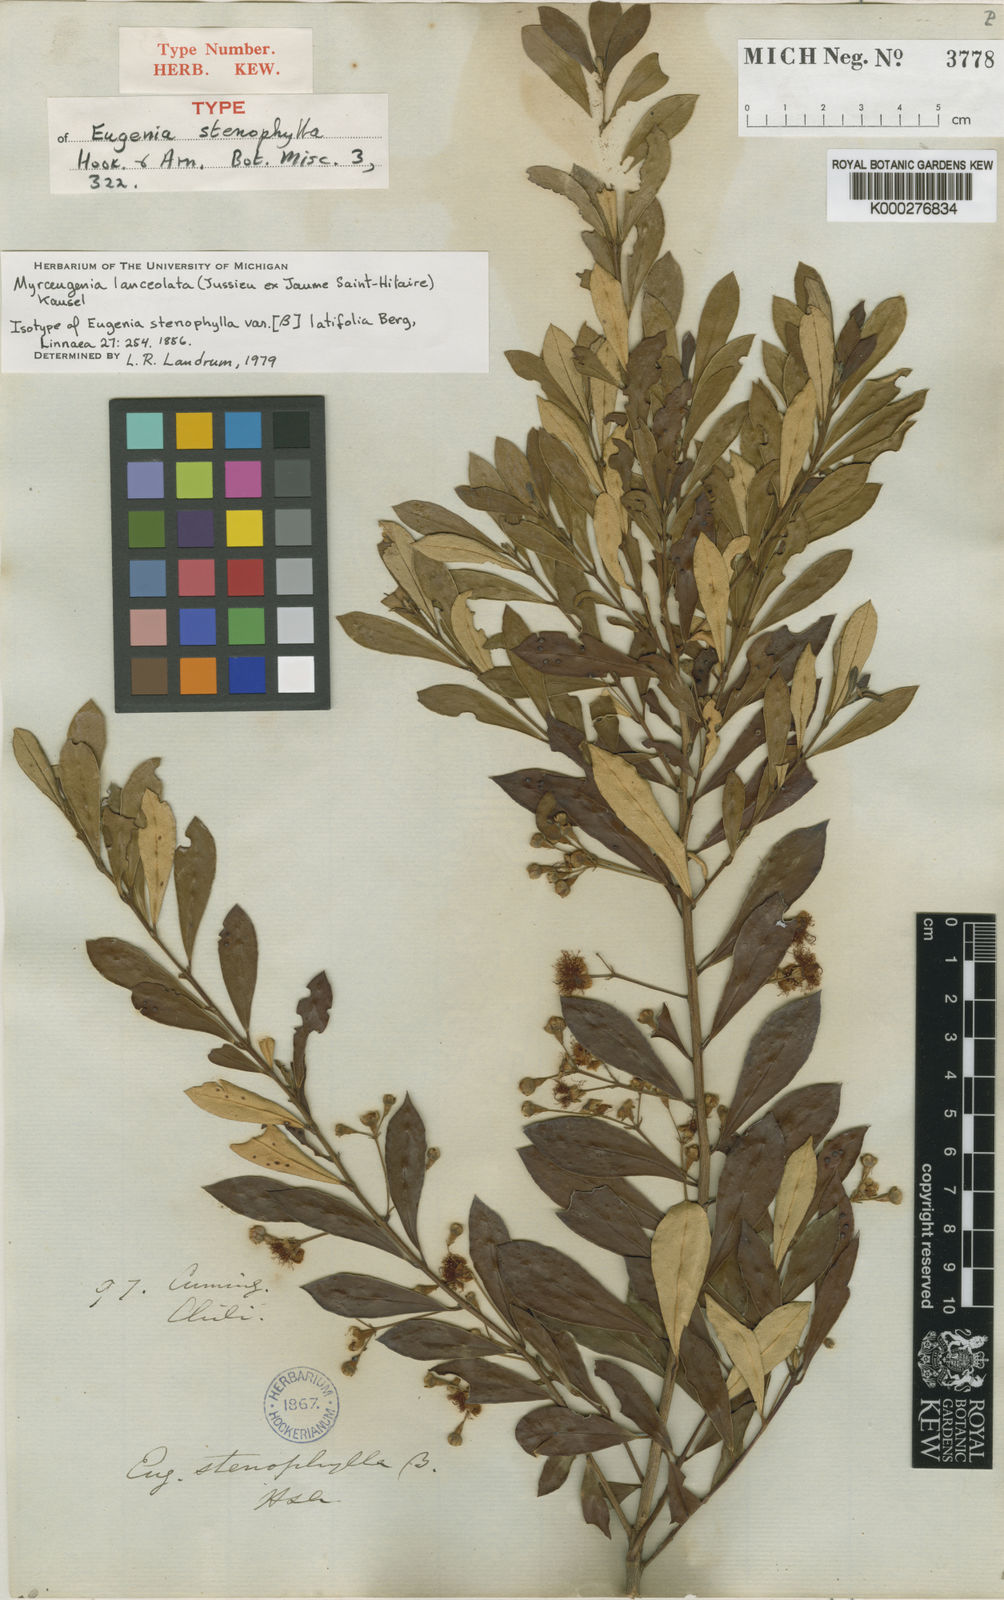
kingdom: Plantae
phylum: Tracheophyta
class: Magnoliopsida
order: Myrtales
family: Myrtaceae
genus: Myrceugenia
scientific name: Myrceugenia lanceolata
